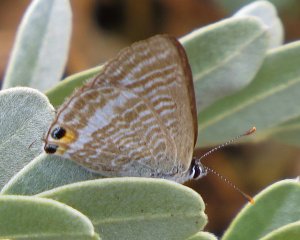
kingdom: Animalia
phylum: Arthropoda
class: Insecta
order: Lepidoptera
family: Lycaenidae
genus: Lampides
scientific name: Lampides boeticus
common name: Pea Blue
